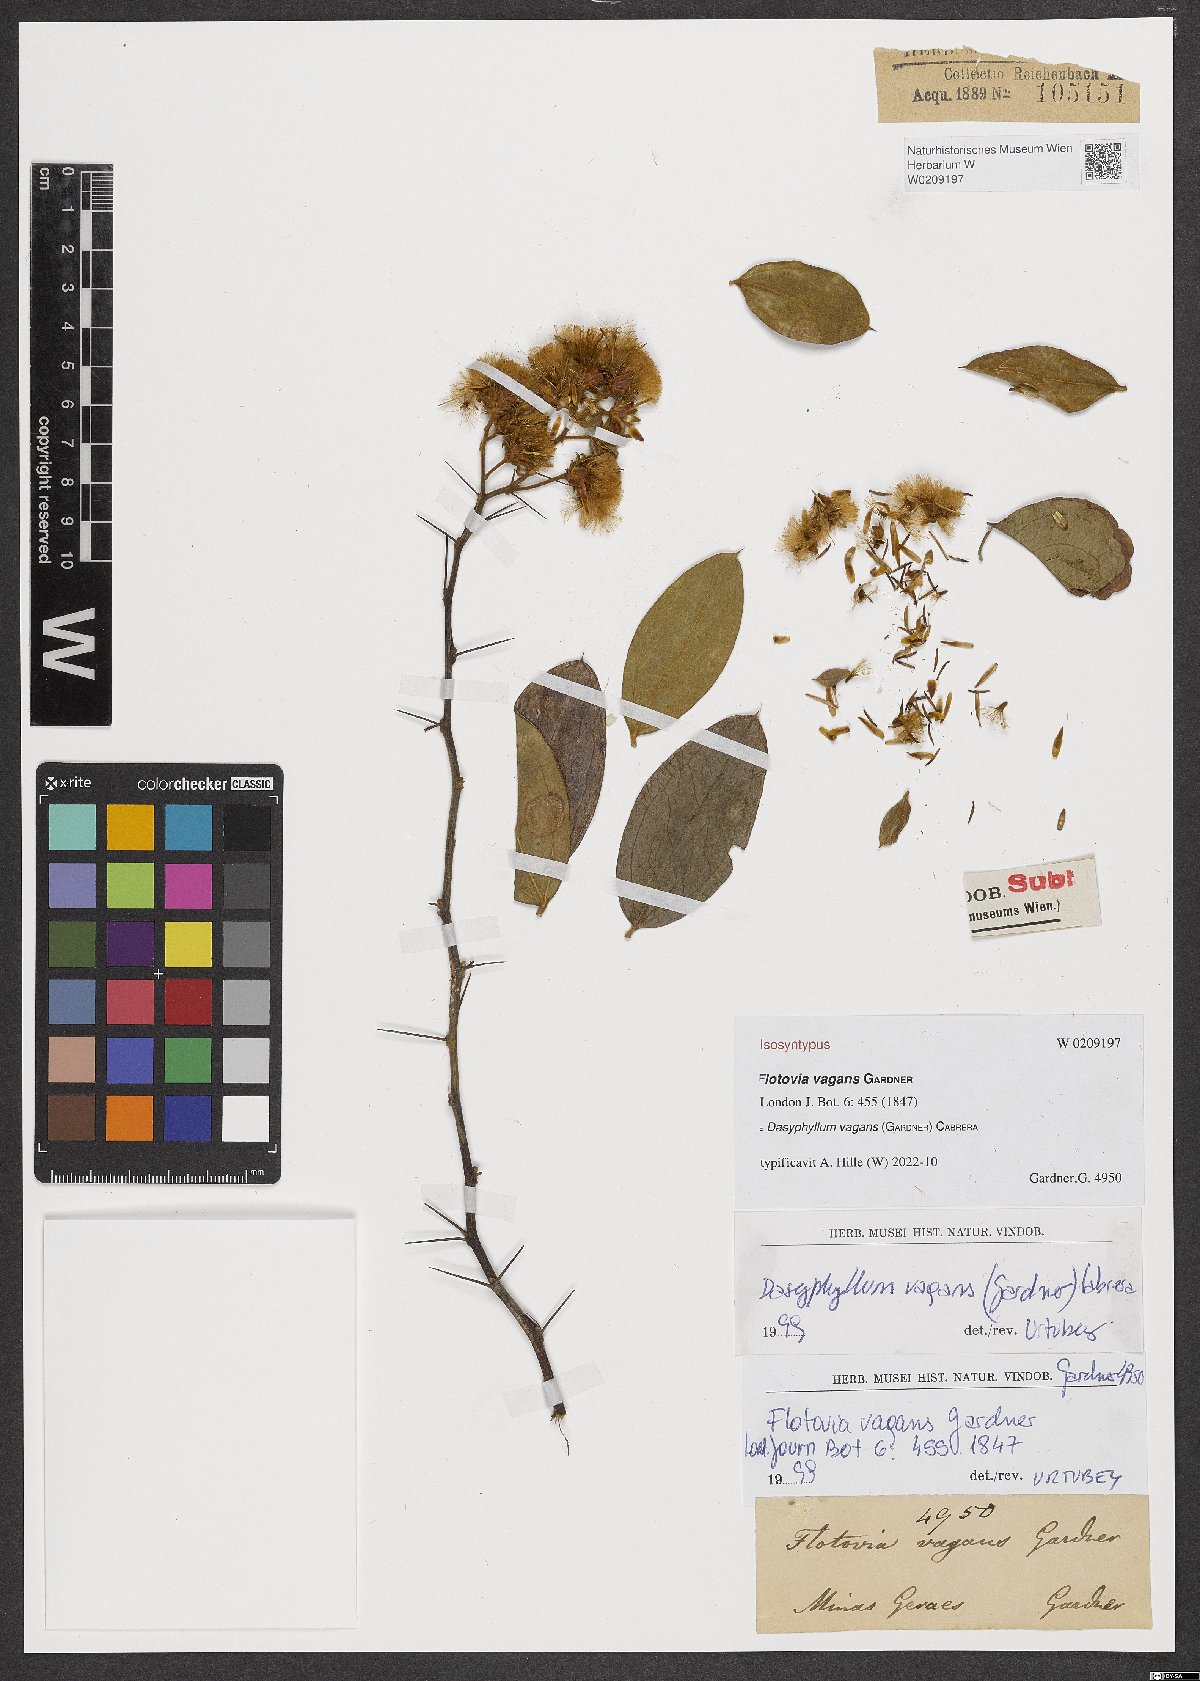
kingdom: Plantae
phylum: Tracheophyta
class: Magnoliopsida
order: Asterales
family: Asteraceae
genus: Dasyphyllum
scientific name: Dasyphyllum vagans
